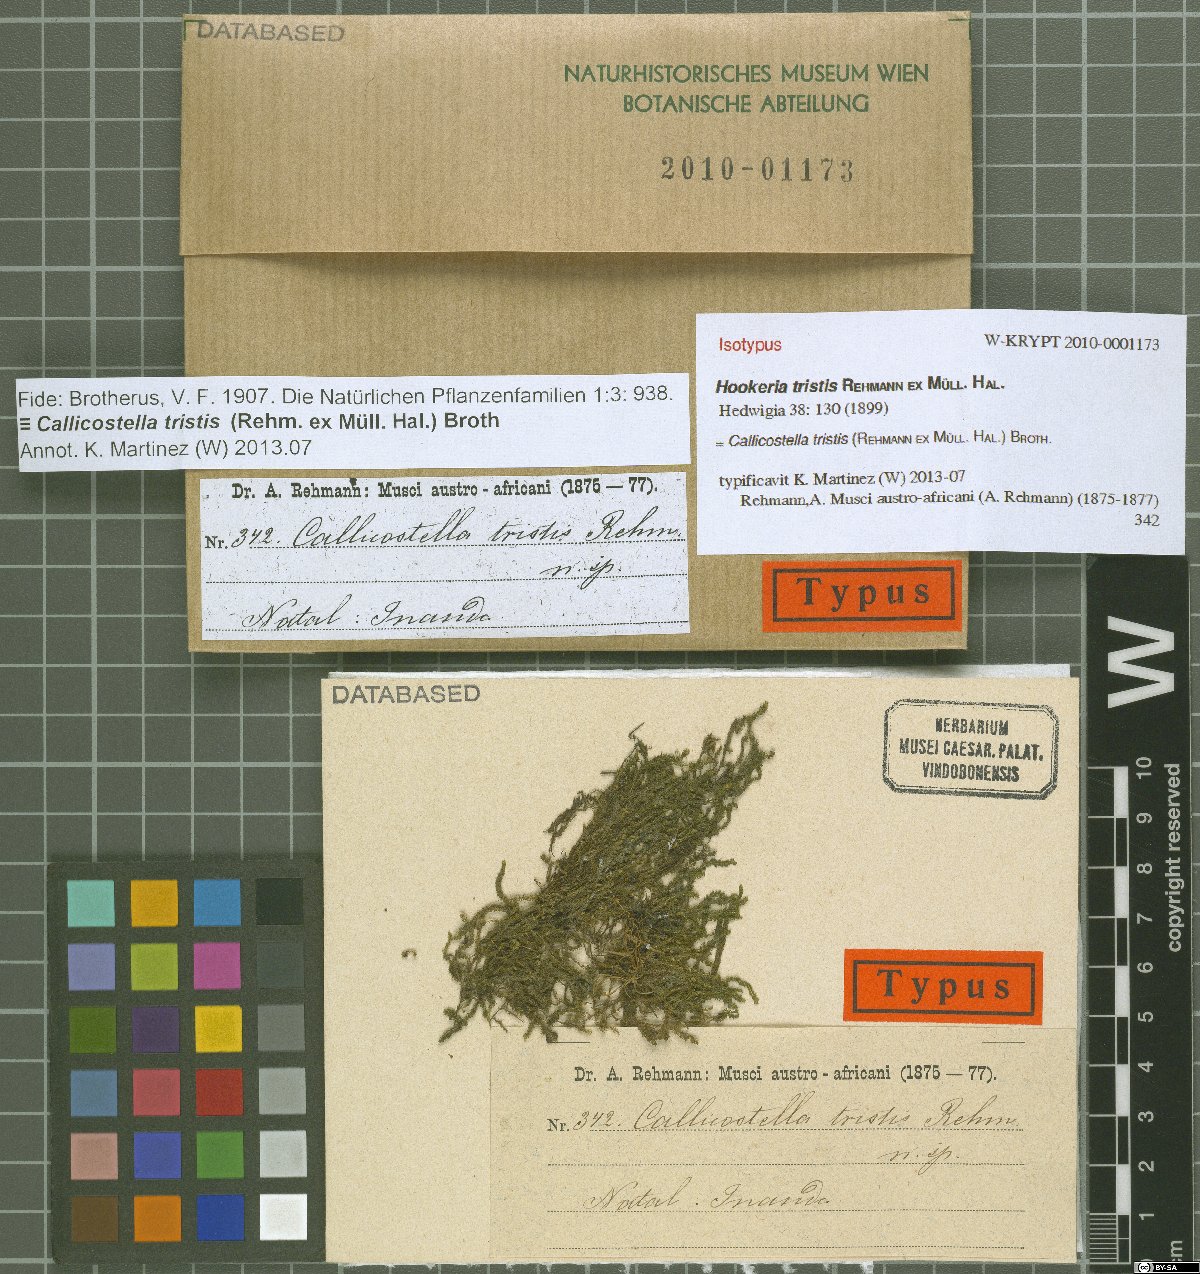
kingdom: Plantae
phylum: Bryophyta
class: Bryopsida
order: Hookeriales
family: Pilotrichaceae
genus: Callicostella
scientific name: Callicostella tristis
